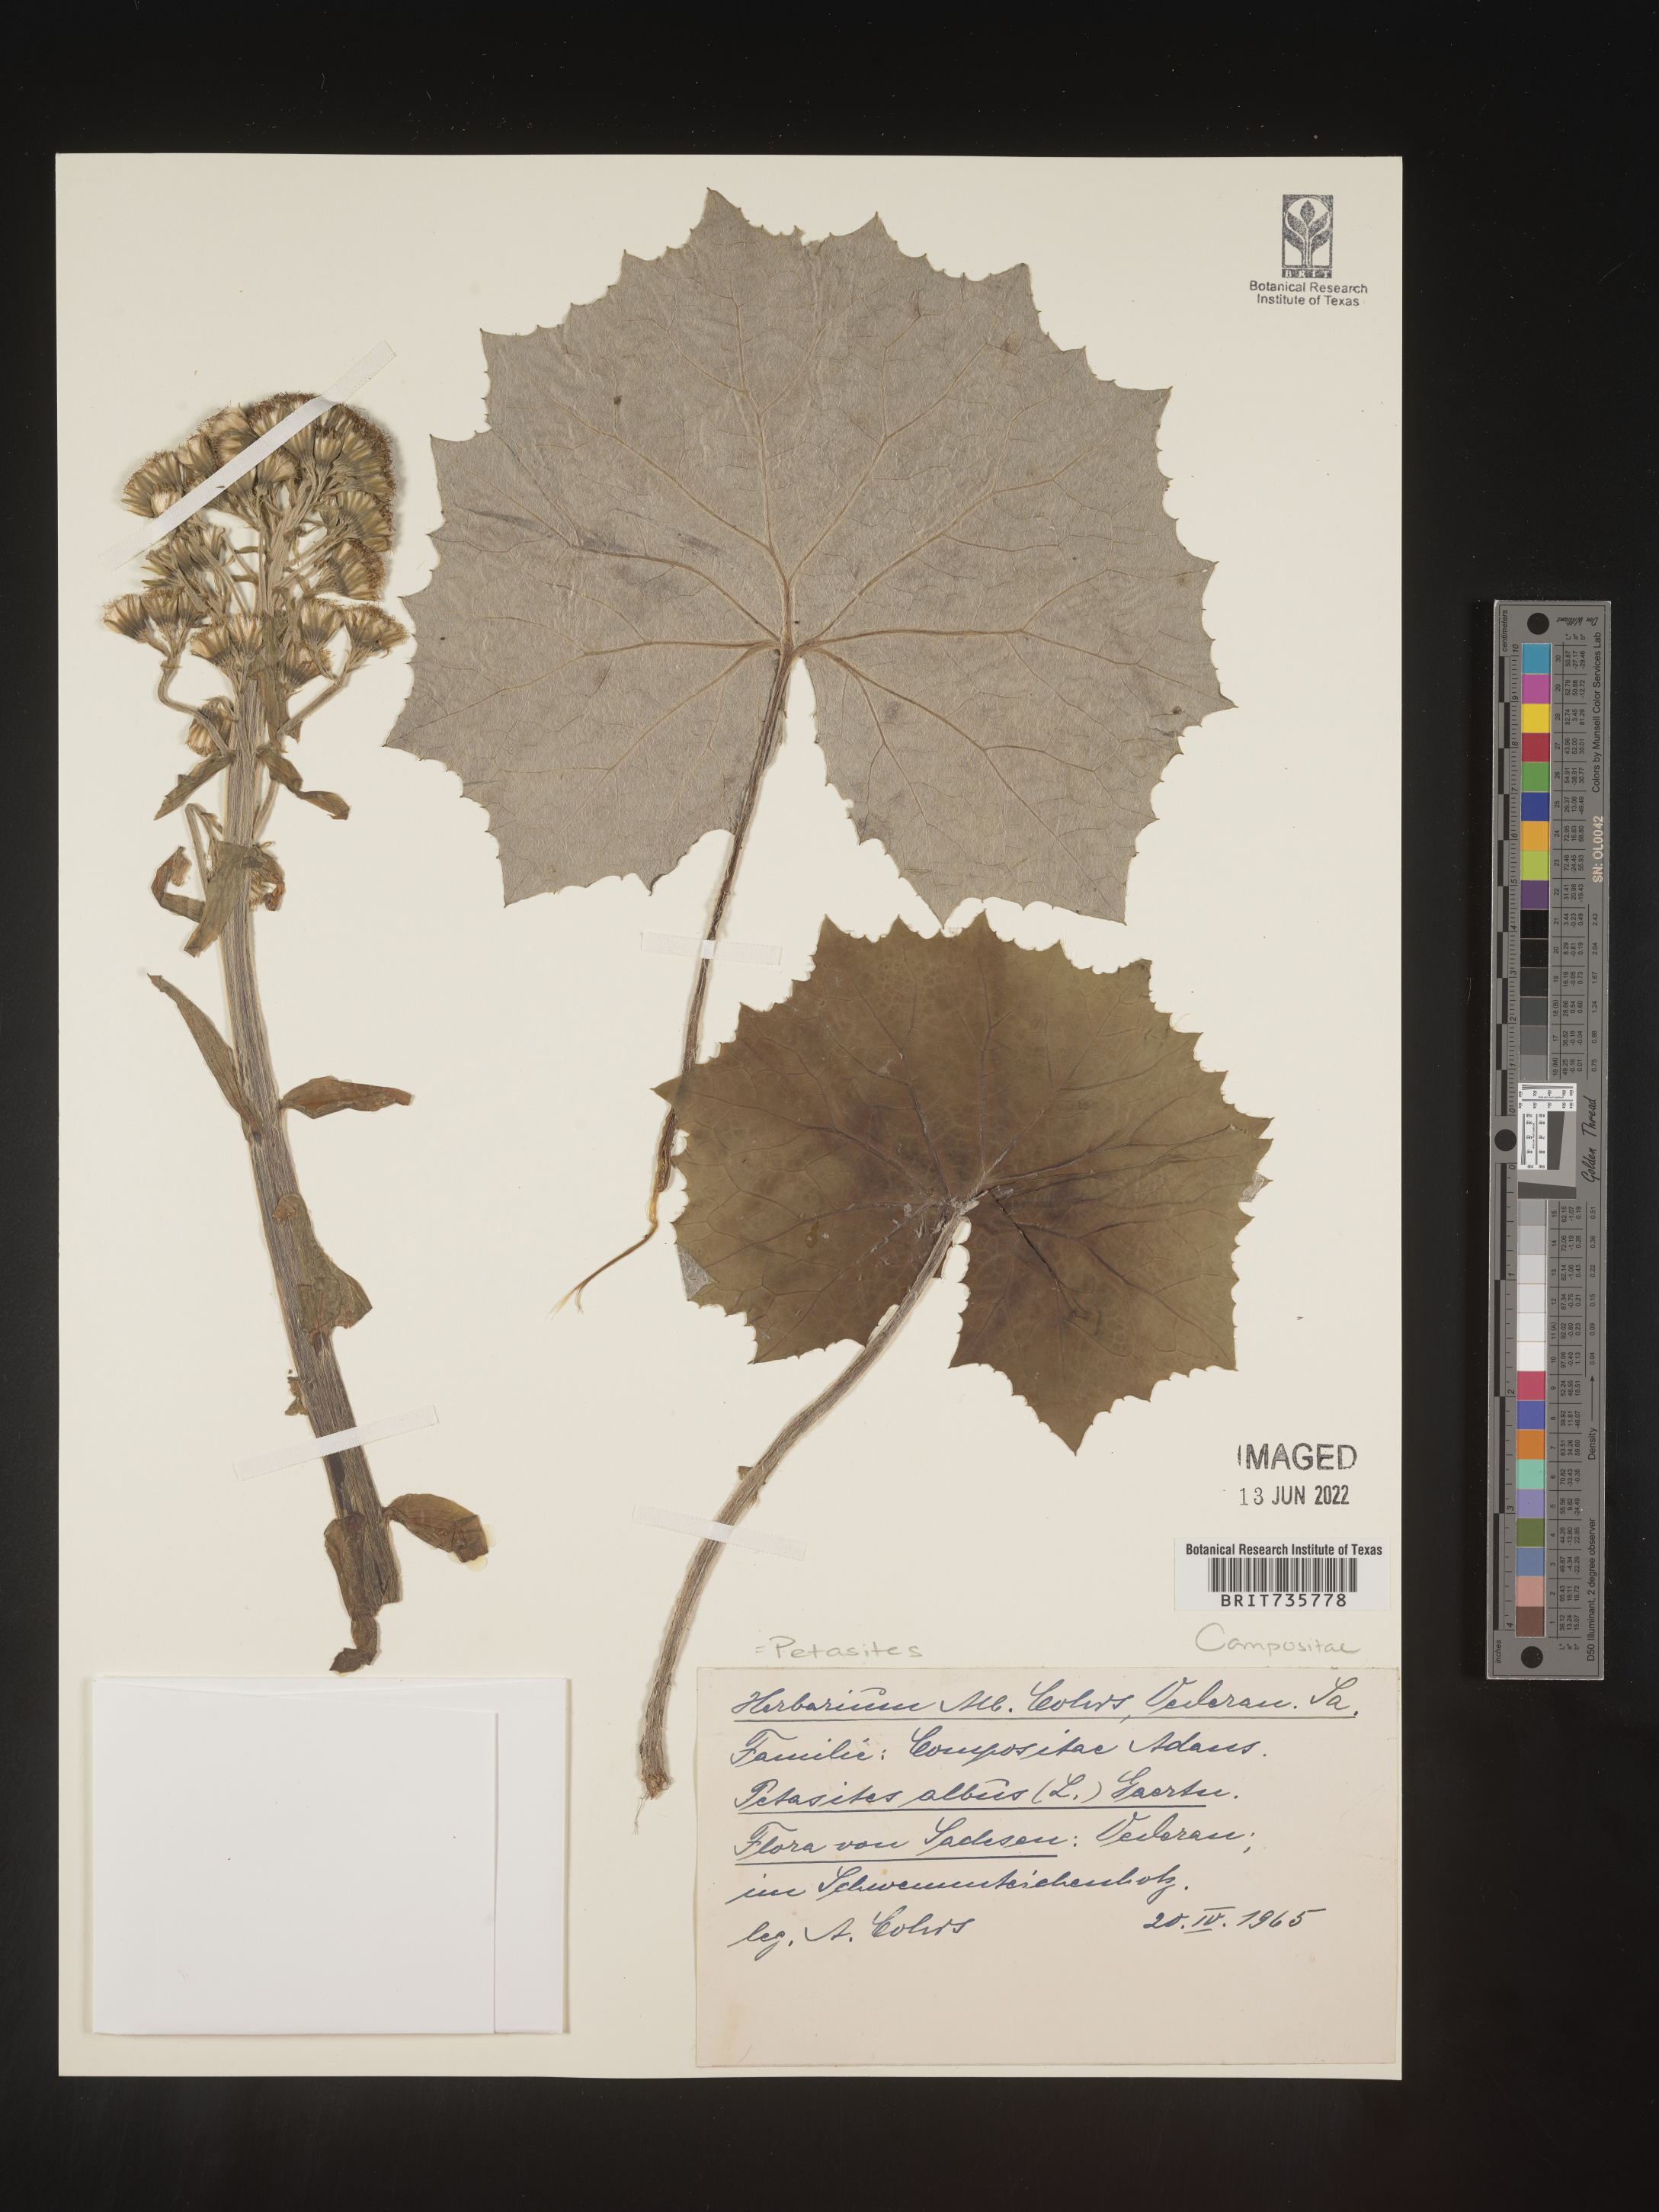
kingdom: Plantae
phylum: Tracheophyta
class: Magnoliopsida
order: Asterales
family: Asteraceae
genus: Petasites
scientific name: Petasites
